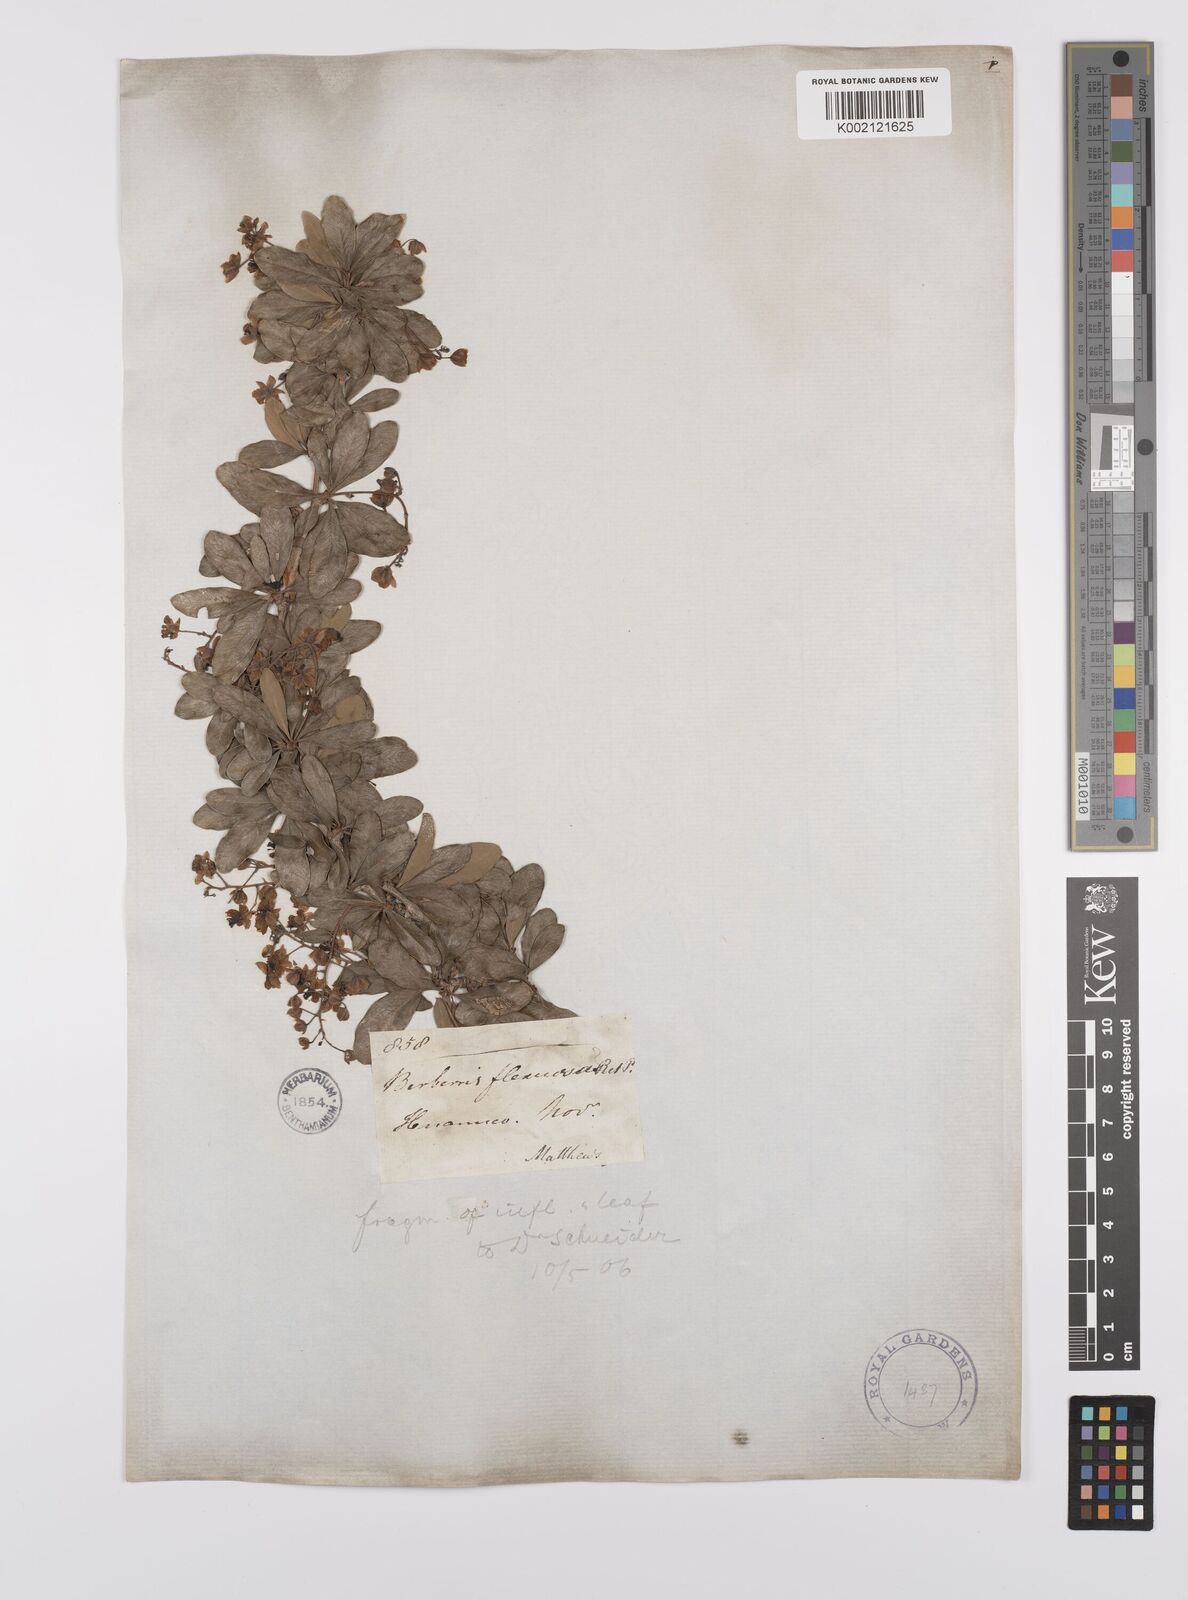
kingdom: Plantae
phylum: Tracheophyta
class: Magnoliopsida
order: Ranunculales
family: Berberidaceae
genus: Berberis
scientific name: Berberis flexuosa
